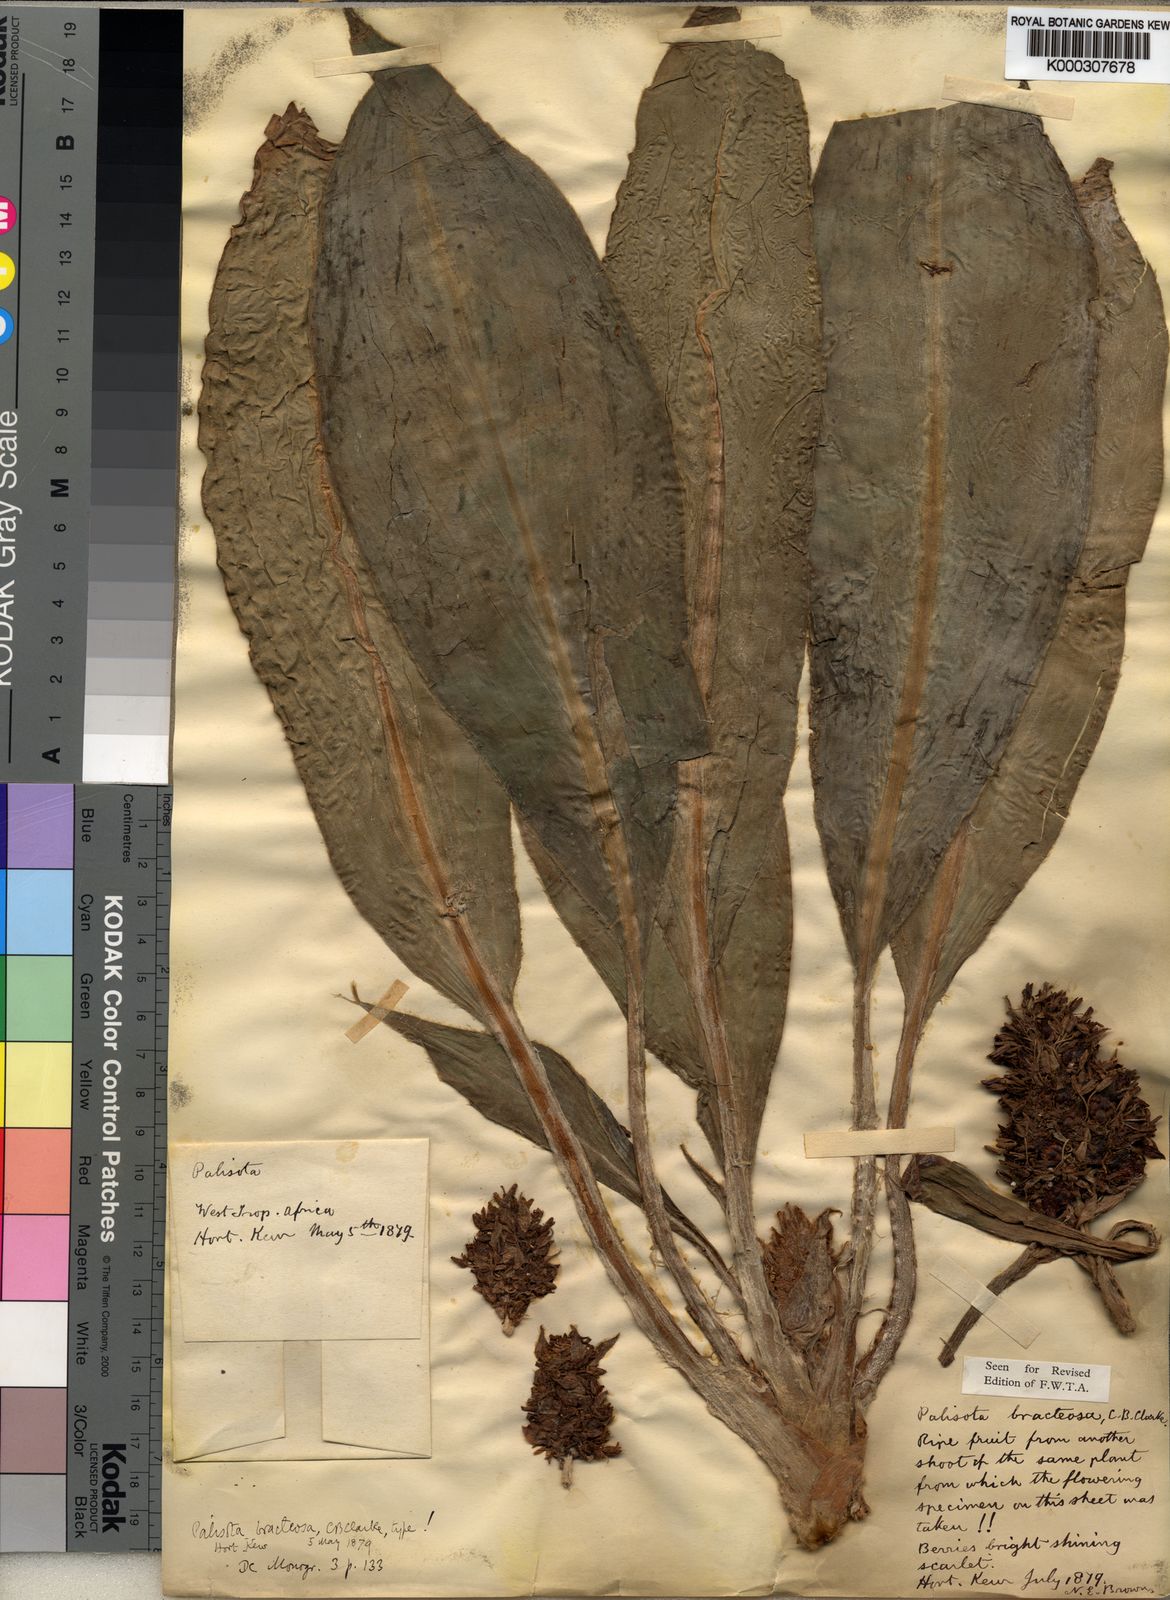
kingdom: Plantae
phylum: Tracheophyta
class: Liliopsida
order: Commelinales
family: Commelinaceae
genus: Palisota
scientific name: Palisota bracteosa
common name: Palisota
